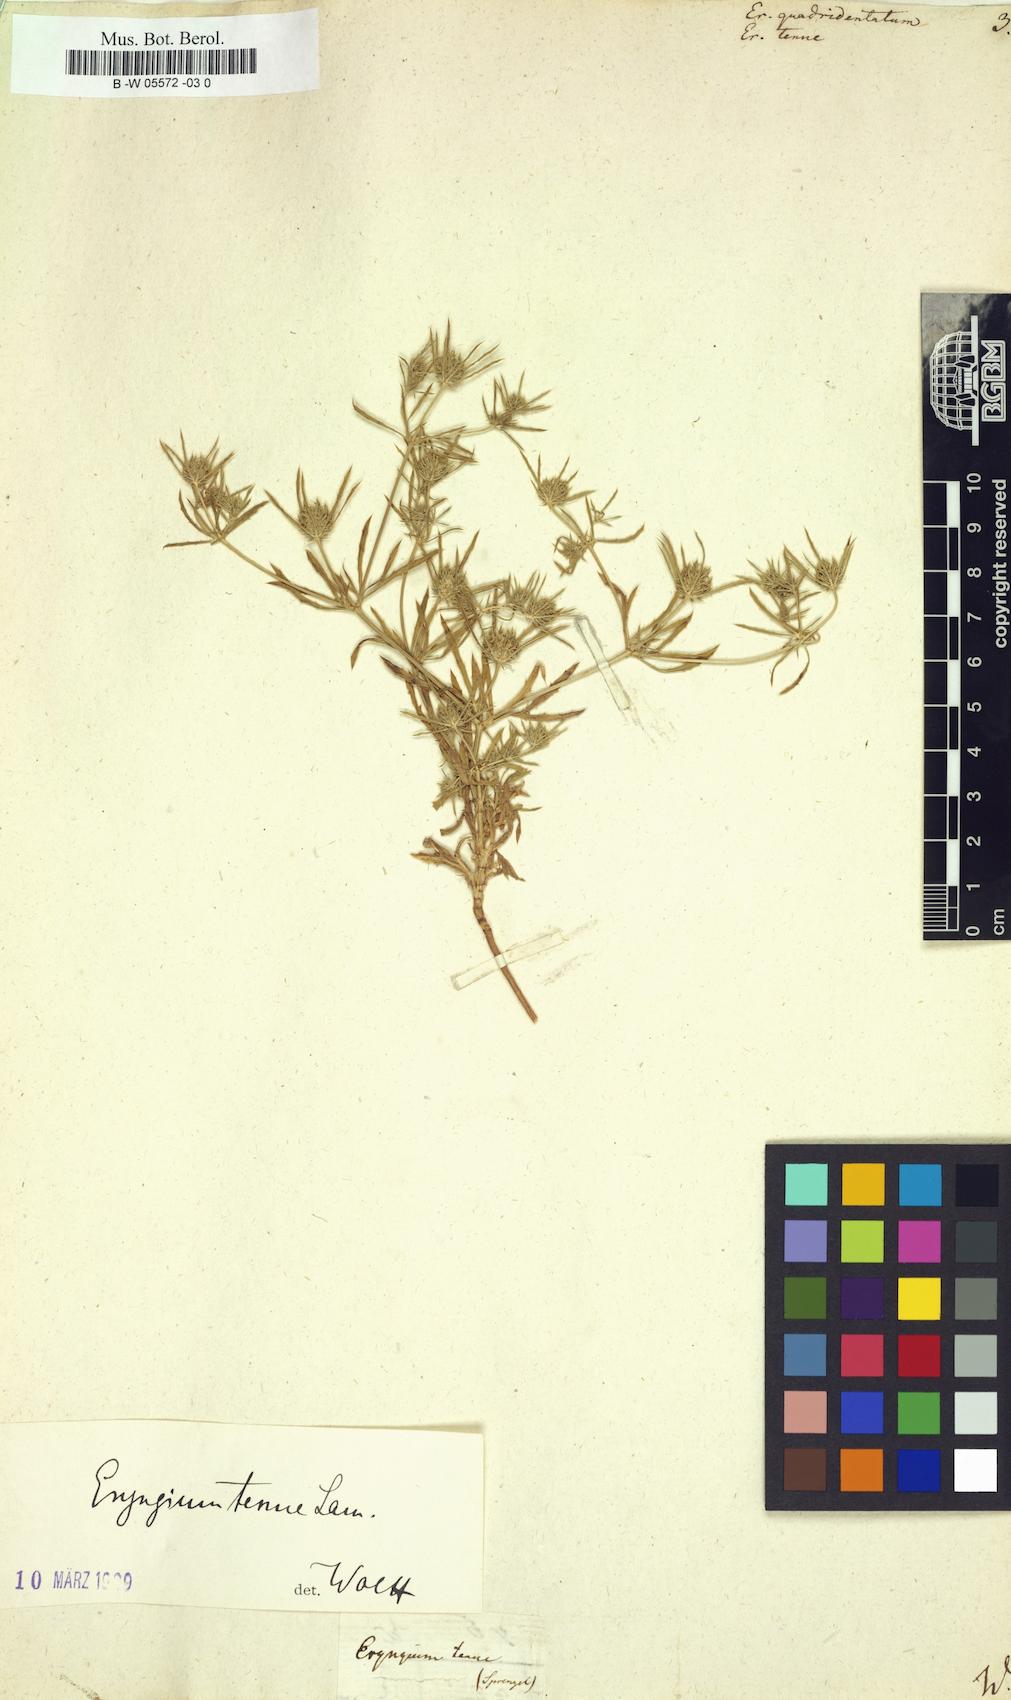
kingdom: Plantae
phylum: Tracheophyta
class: Magnoliopsida
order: Apiales
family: Apiaceae
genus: Eryngium
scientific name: Eryngium
